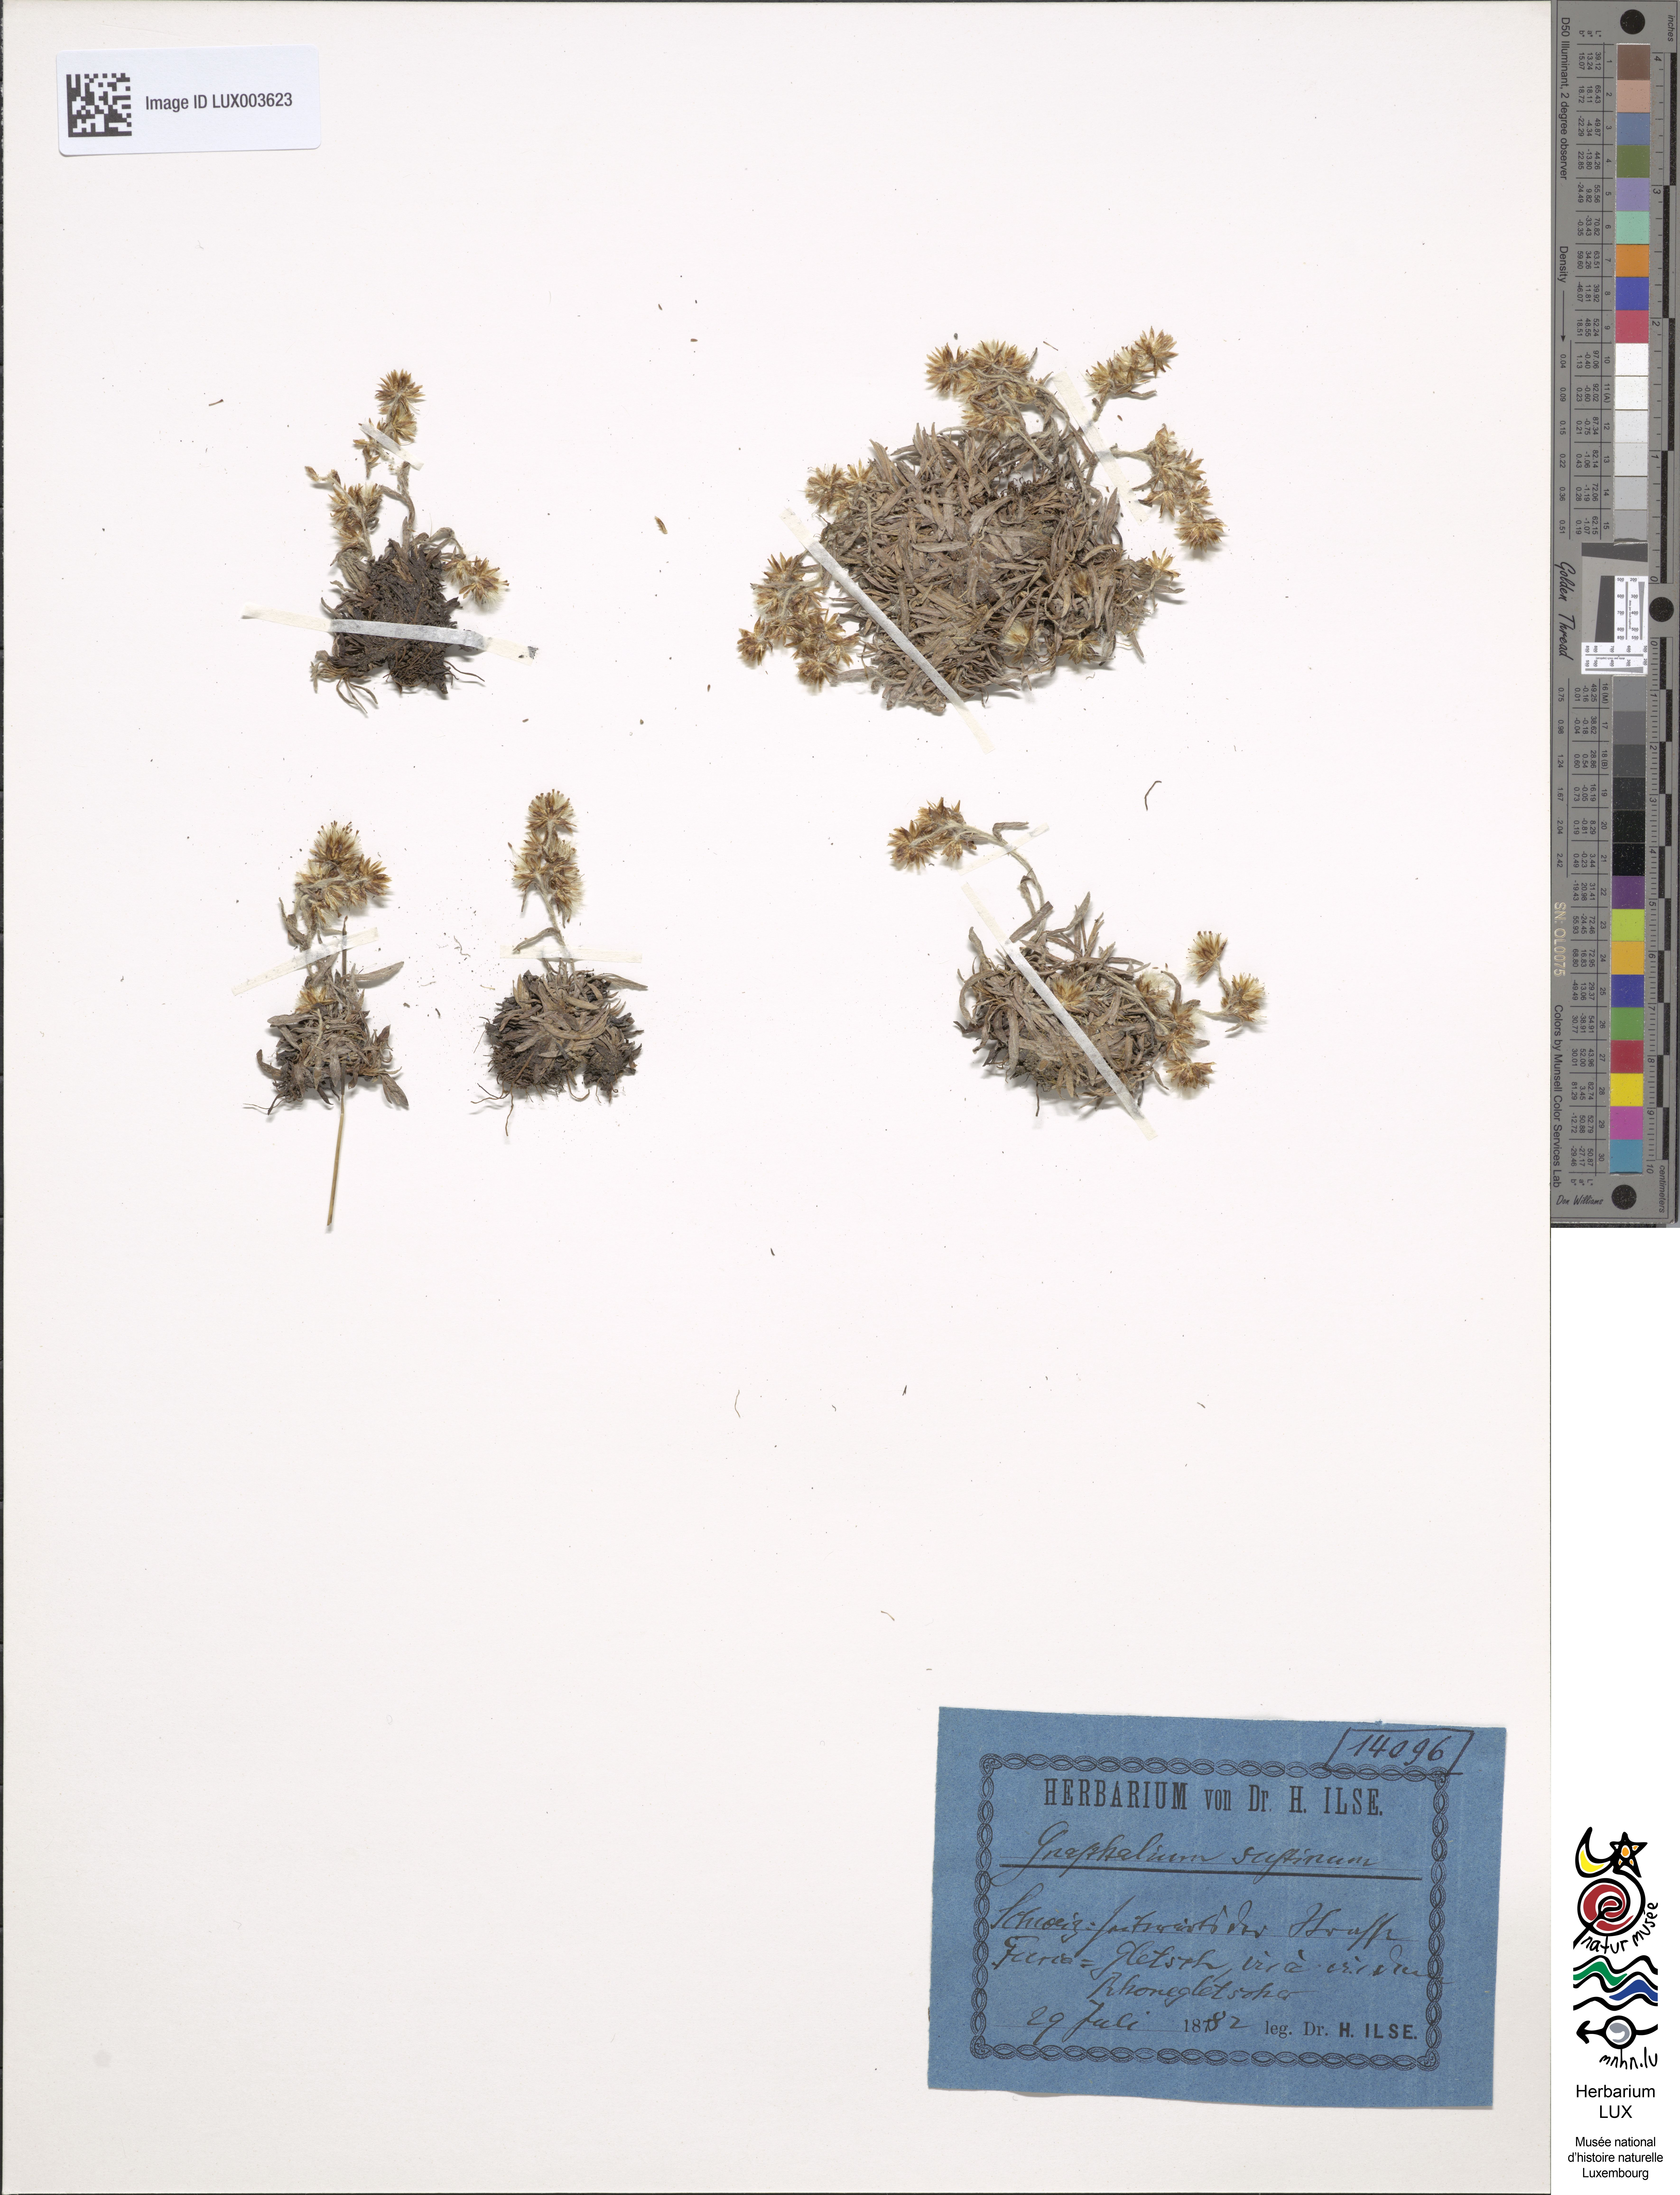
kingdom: Plantae
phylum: Tracheophyta
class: Magnoliopsida
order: Asterales
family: Asteraceae
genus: Omalotheca
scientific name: Omalotheca supina
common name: Alpine arctic-cudweed
